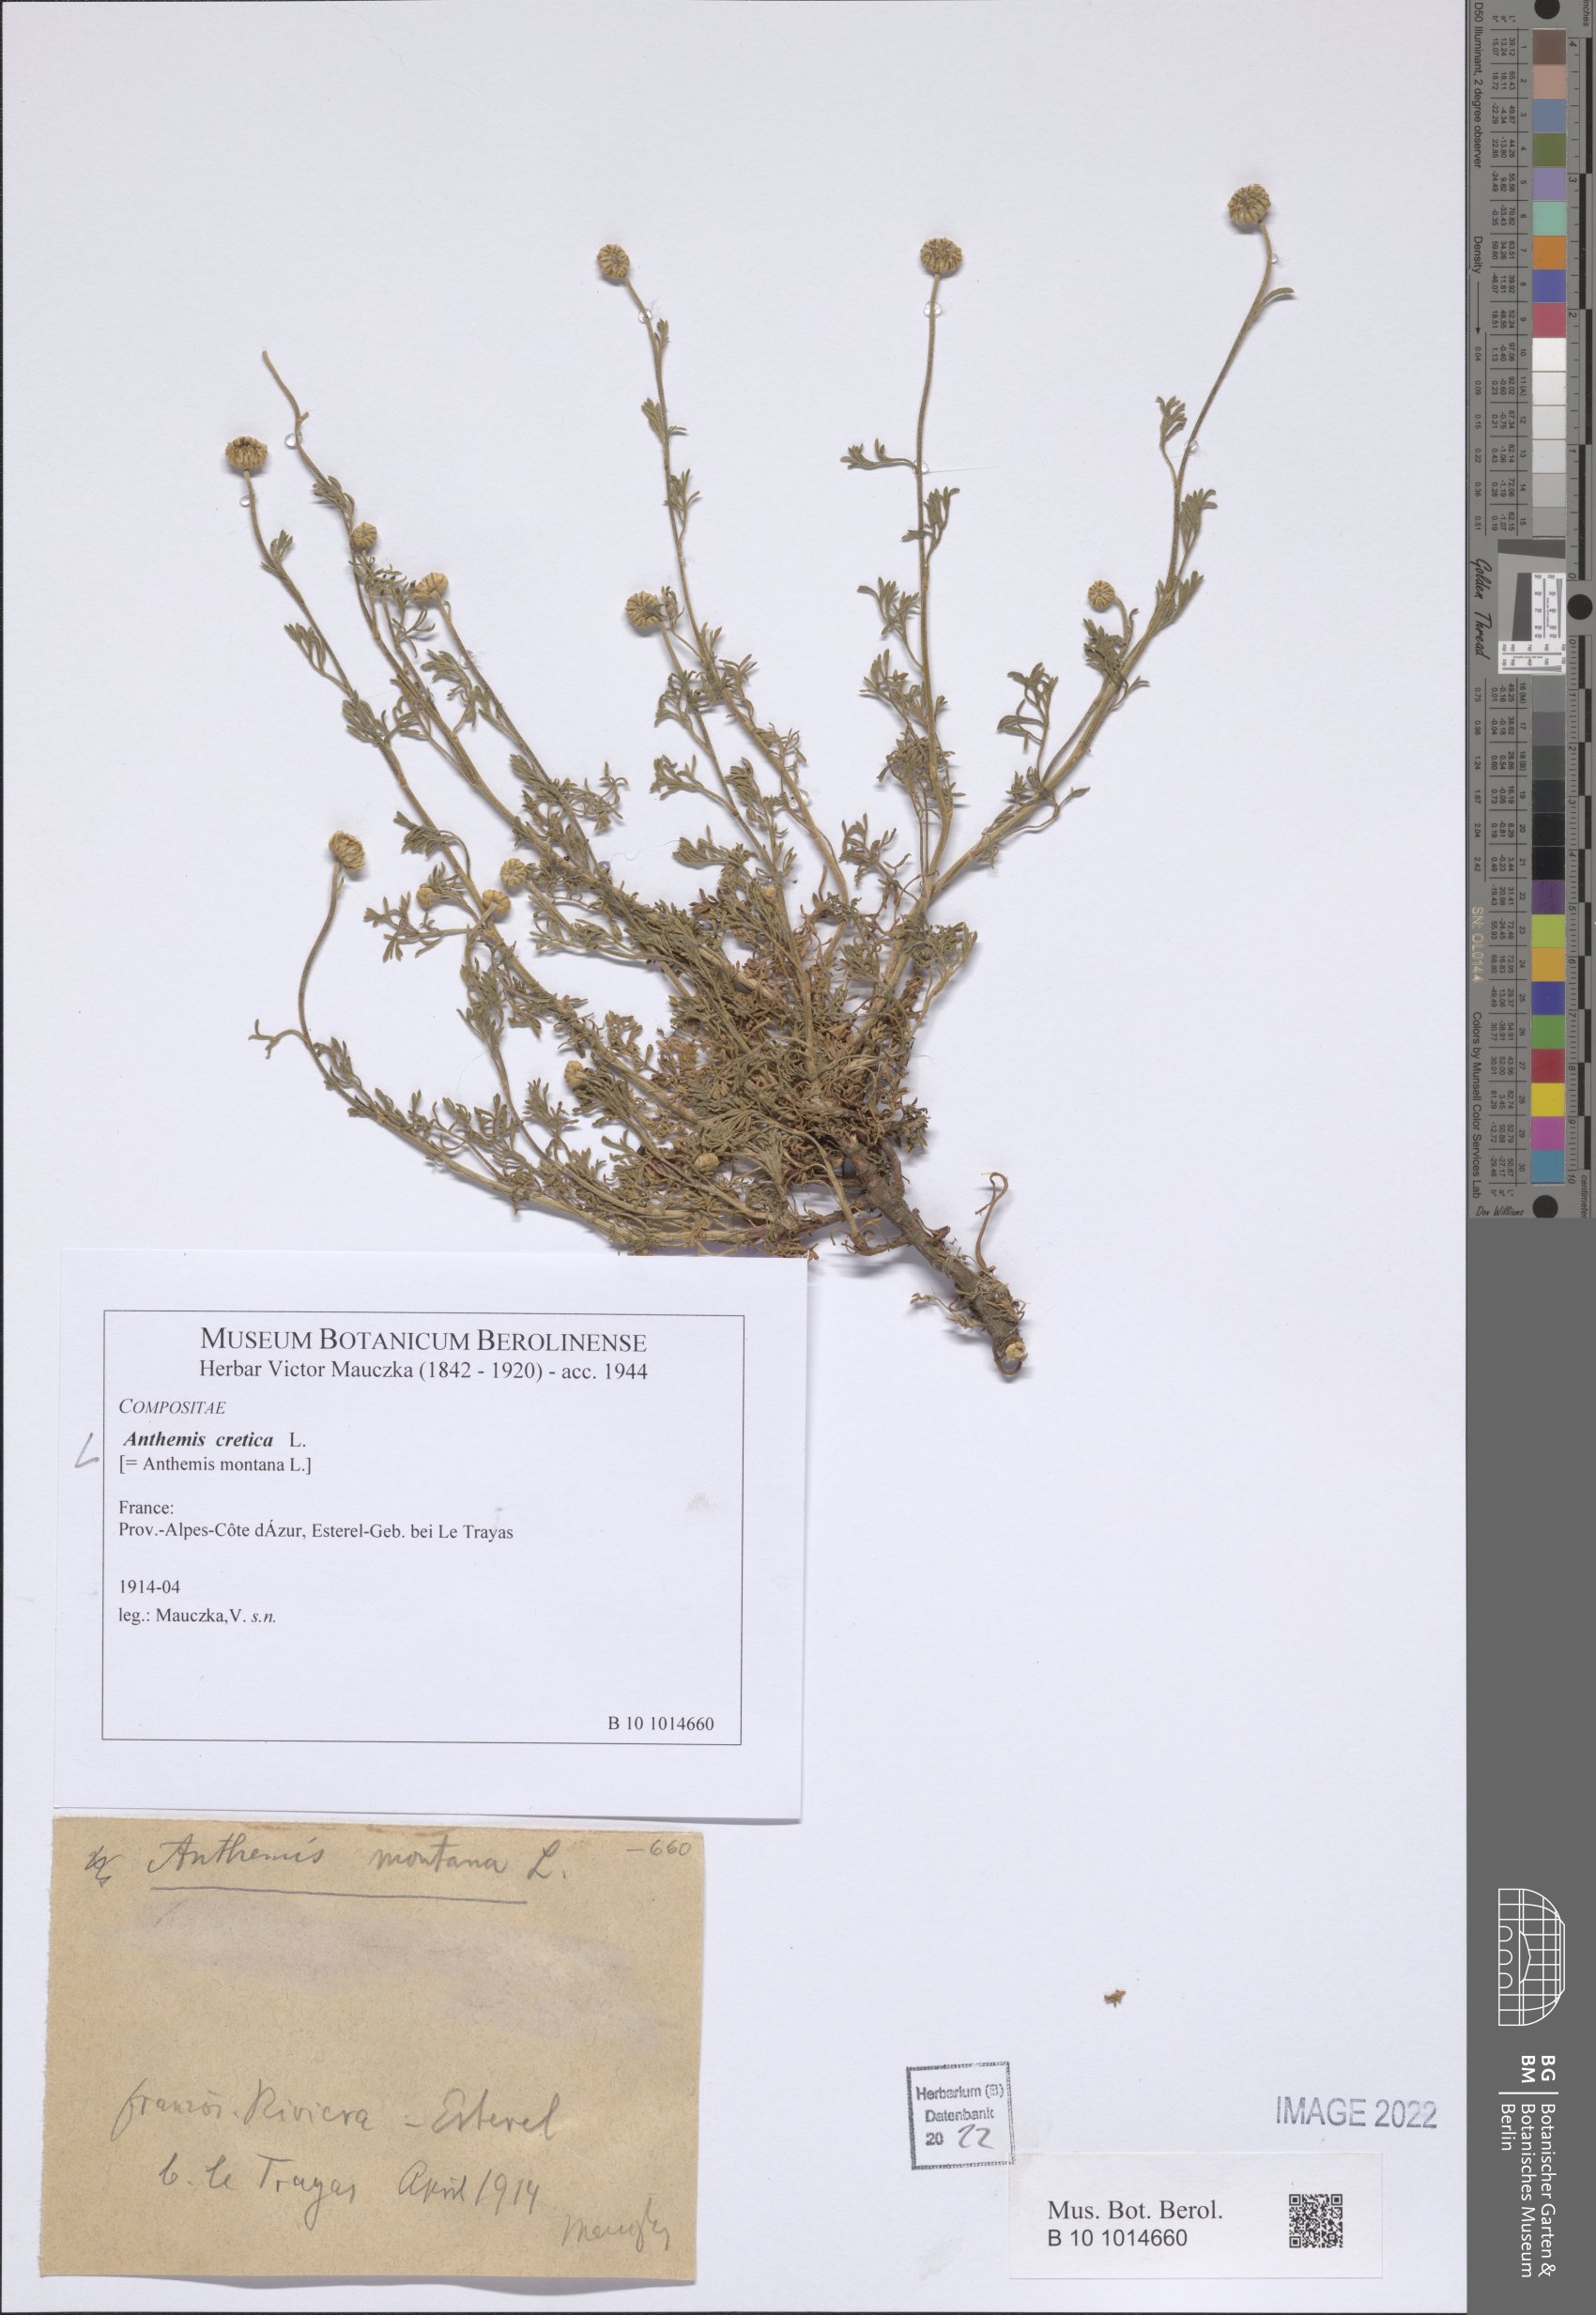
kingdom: Plantae
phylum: Tracheophyta
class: Magnoliopsida
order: Asterales
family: Asteraceae
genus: Anthemis
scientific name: Anthemis cretica
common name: Mountain dog-daisy
